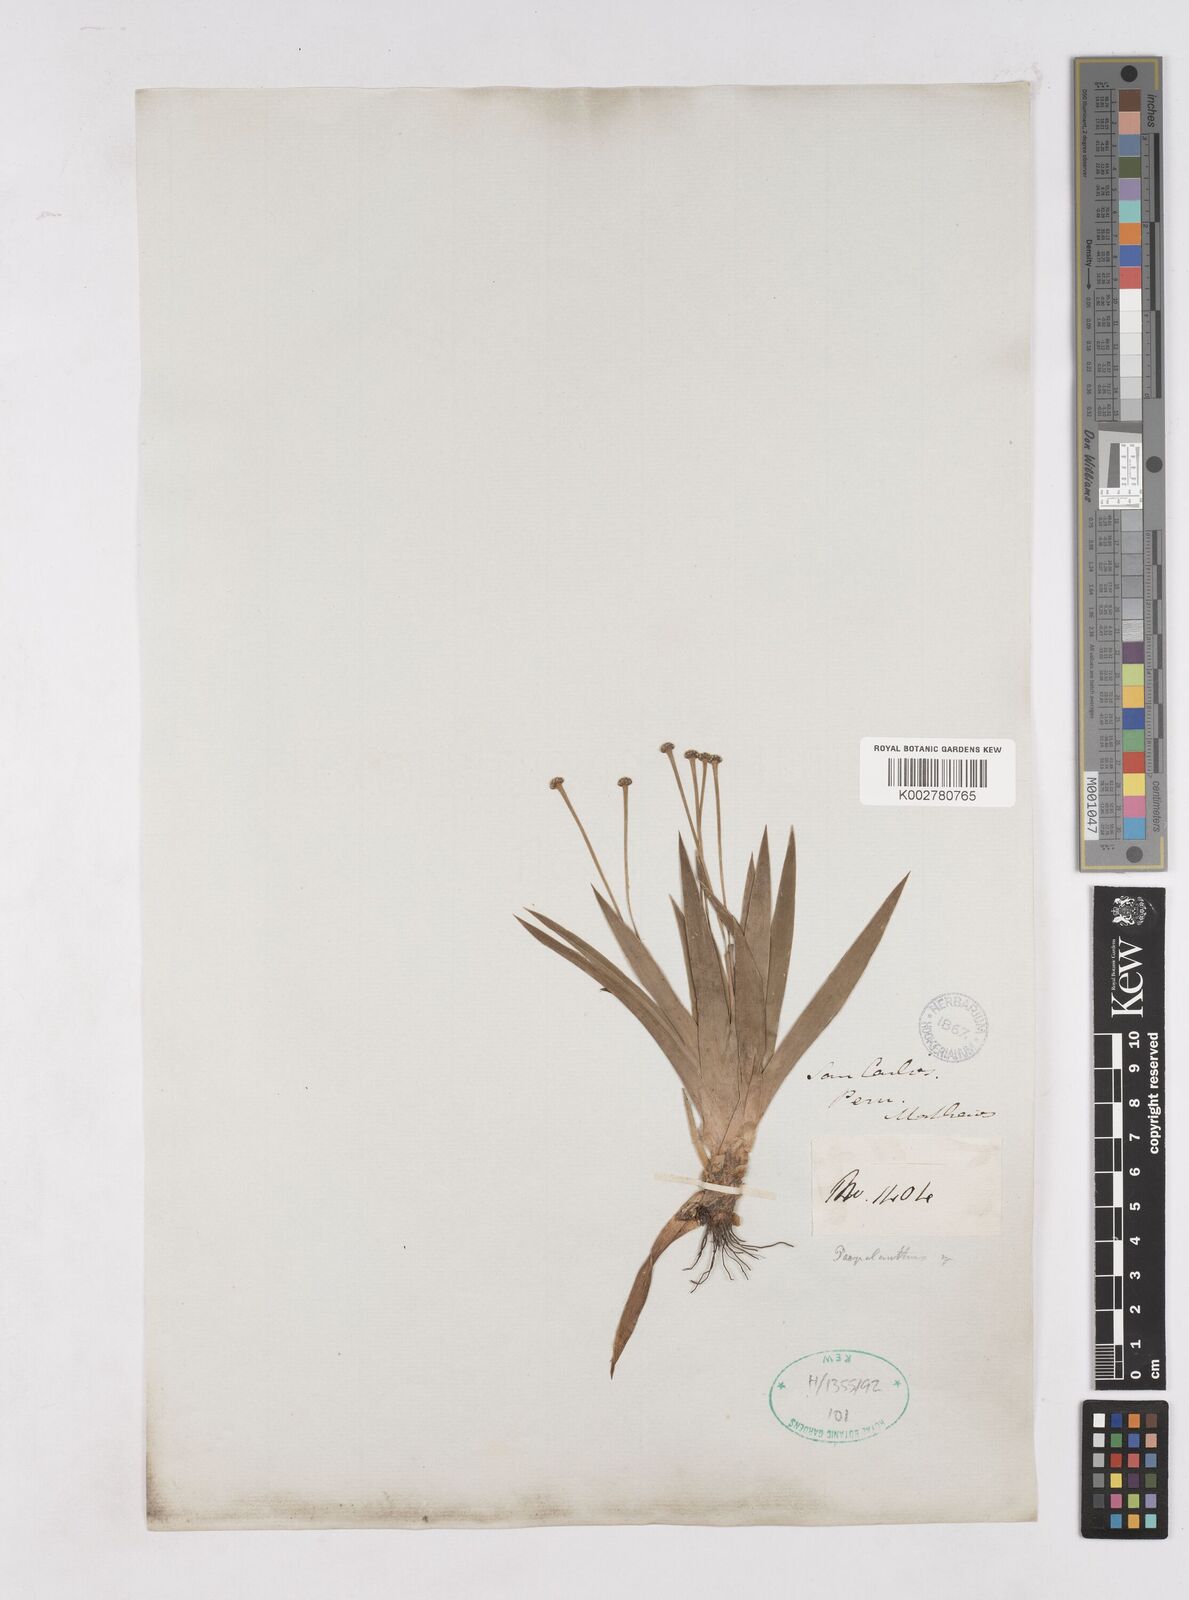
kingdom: Plantae
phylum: Tracheophyta
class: Liliopsida
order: Poales
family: Eriocaulaceae
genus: Paepalanthus
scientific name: Paepalanthus ensifolius
